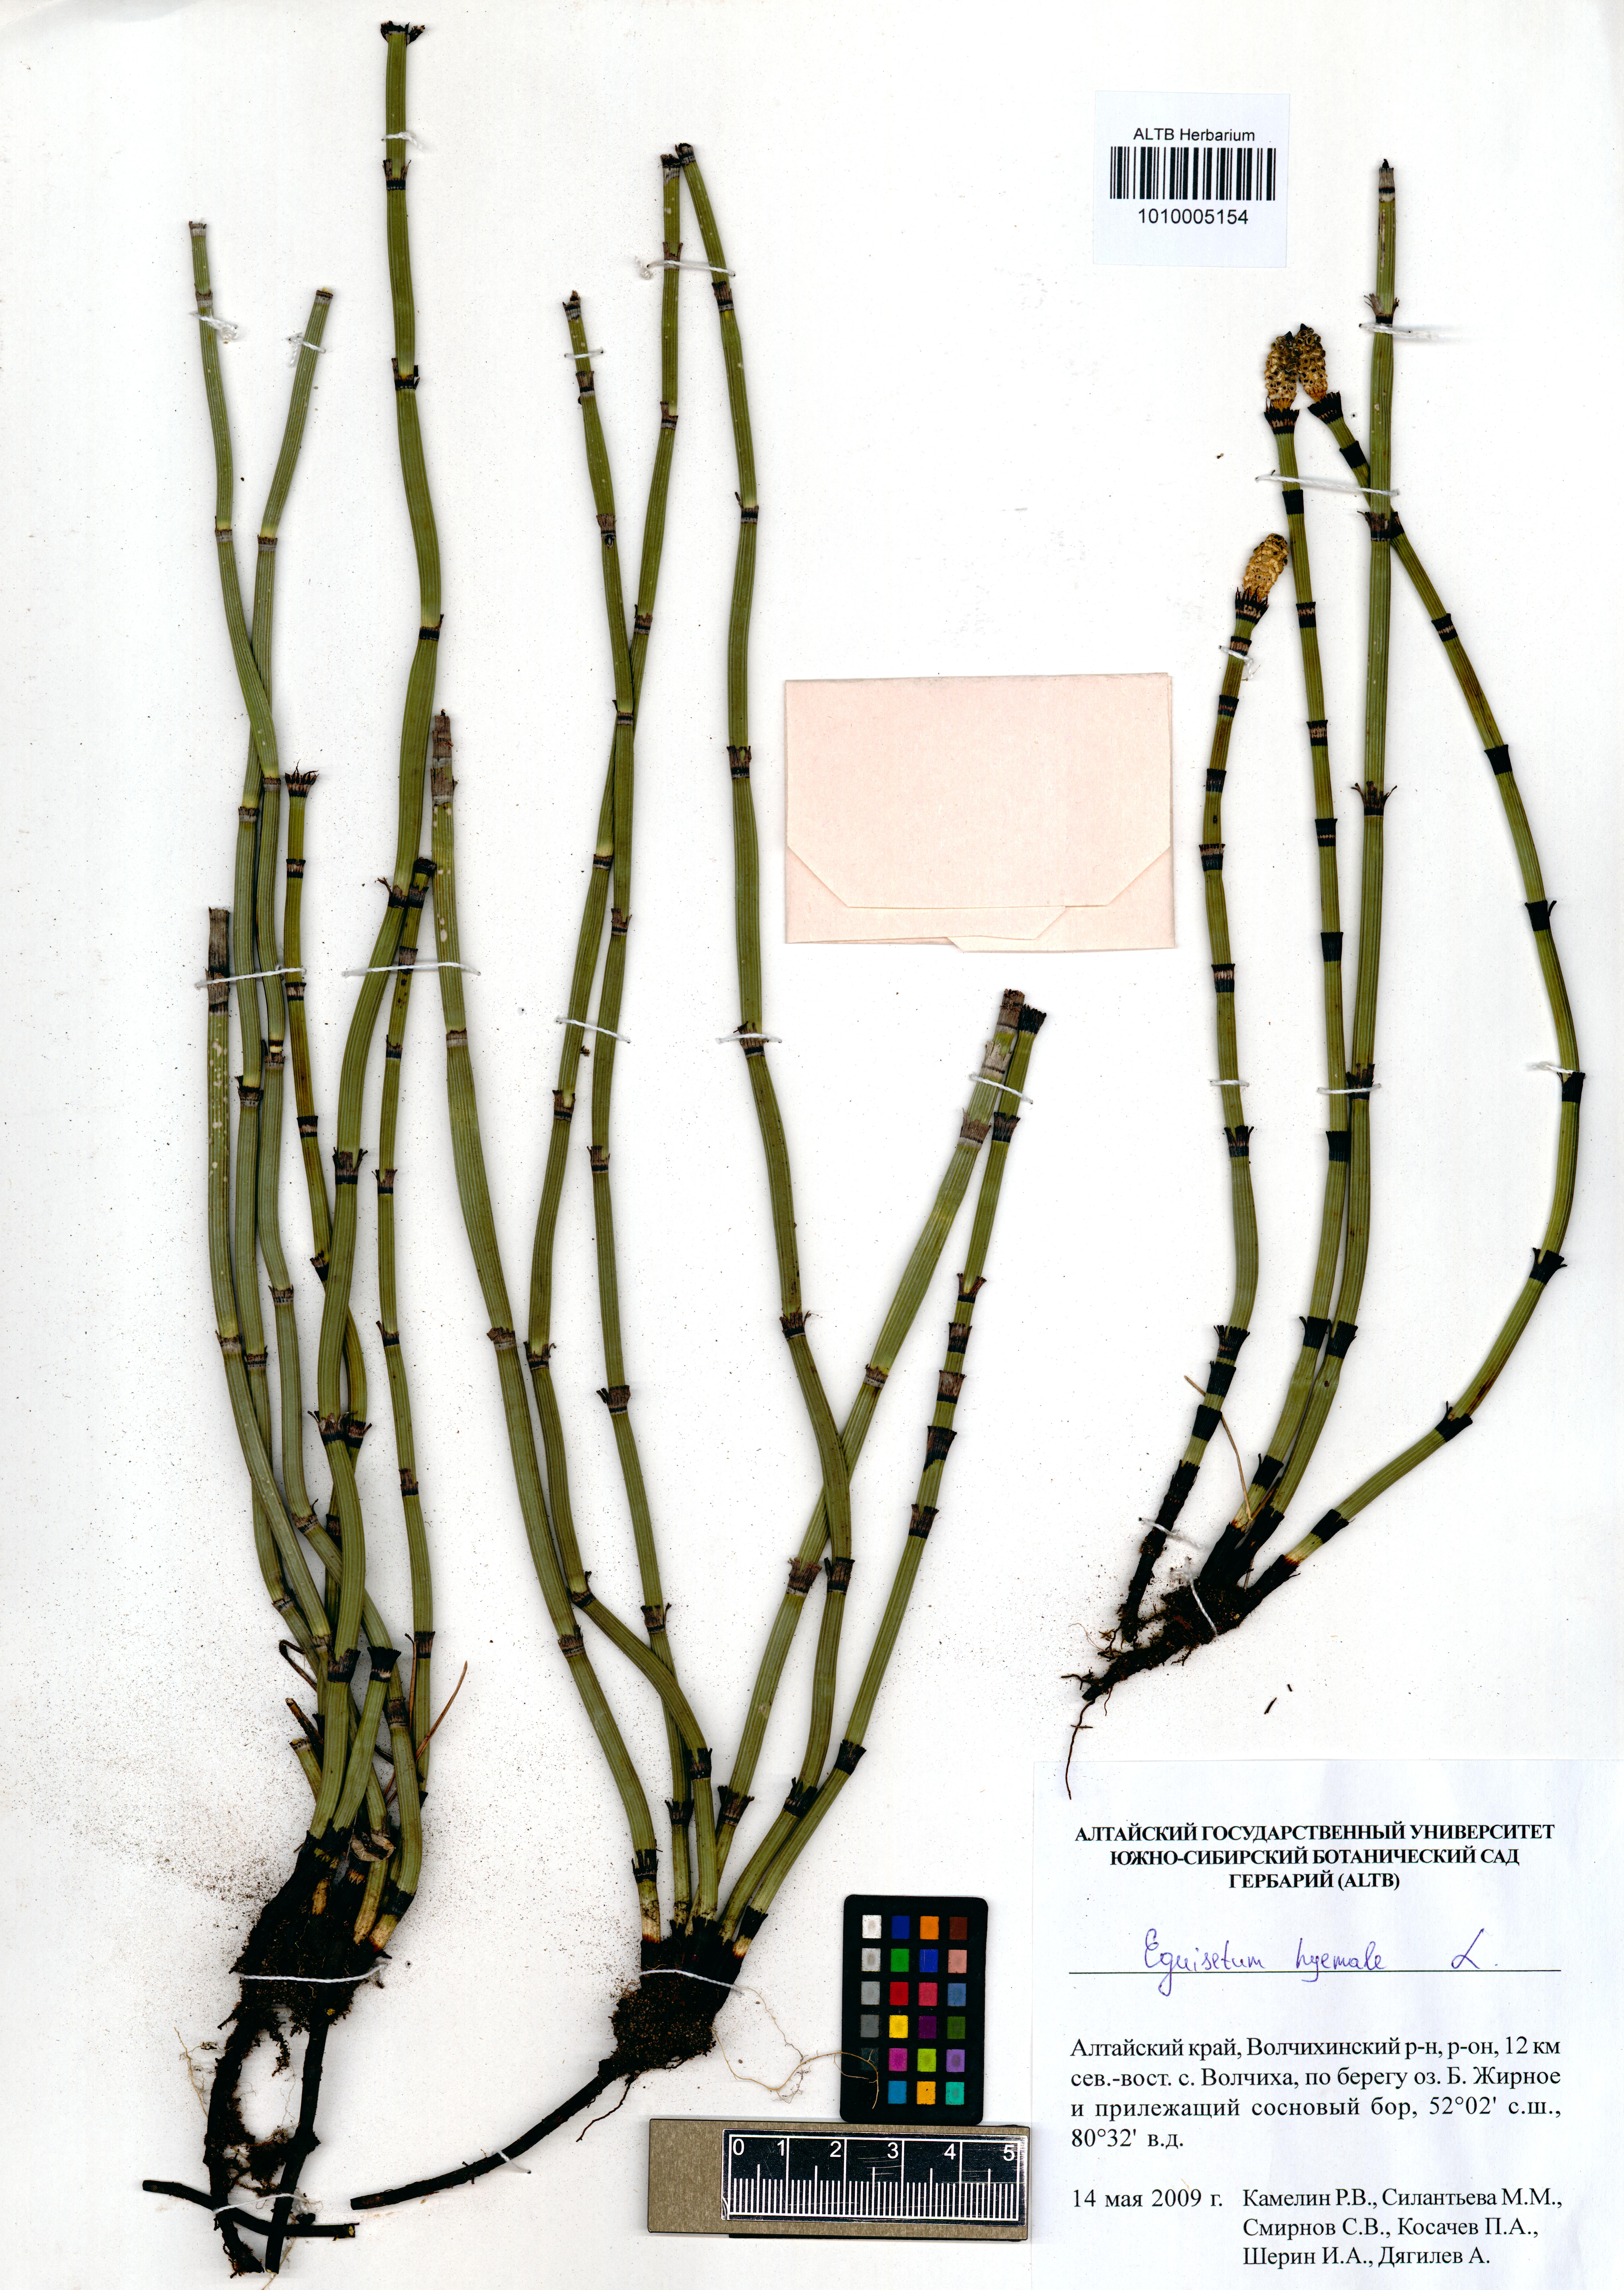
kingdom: Plantae
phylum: Tracheophyta
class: Polypodiopsida
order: Equisetales
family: Equisetaceae
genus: Equisetum
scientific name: Equisetum hyemale
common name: Rough horsetail
